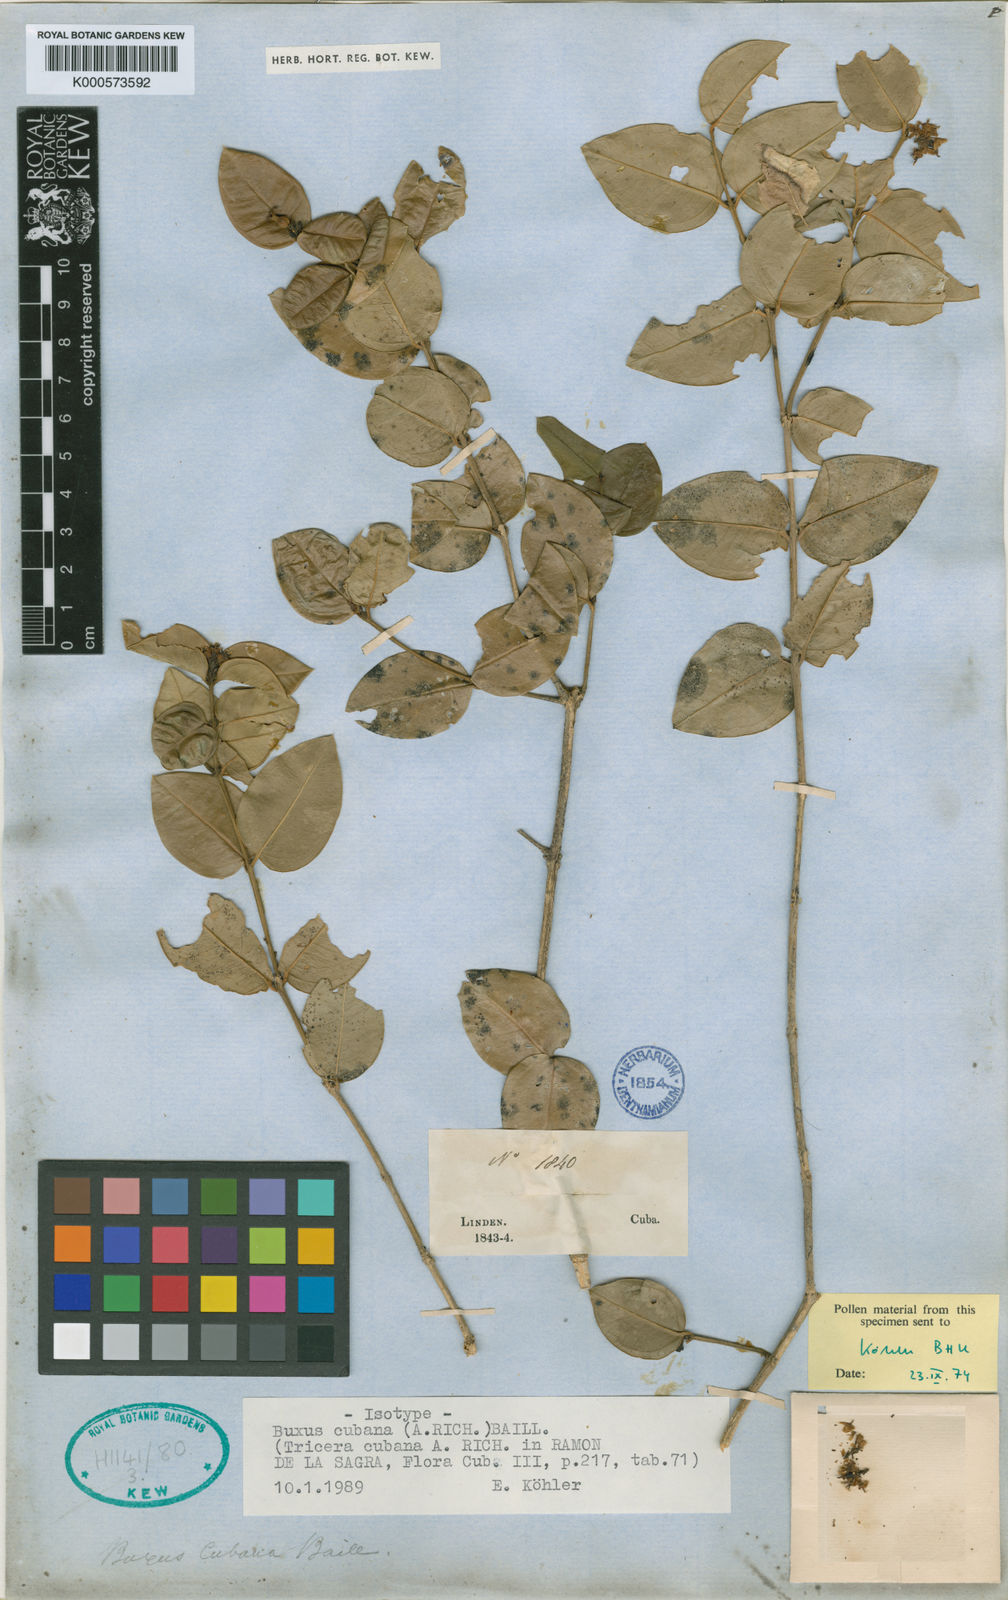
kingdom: Plantae
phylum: Tracheophyta
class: Magnoliopsida
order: Buxales
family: Buxaceae
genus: Buxus
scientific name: Buxus cubana
